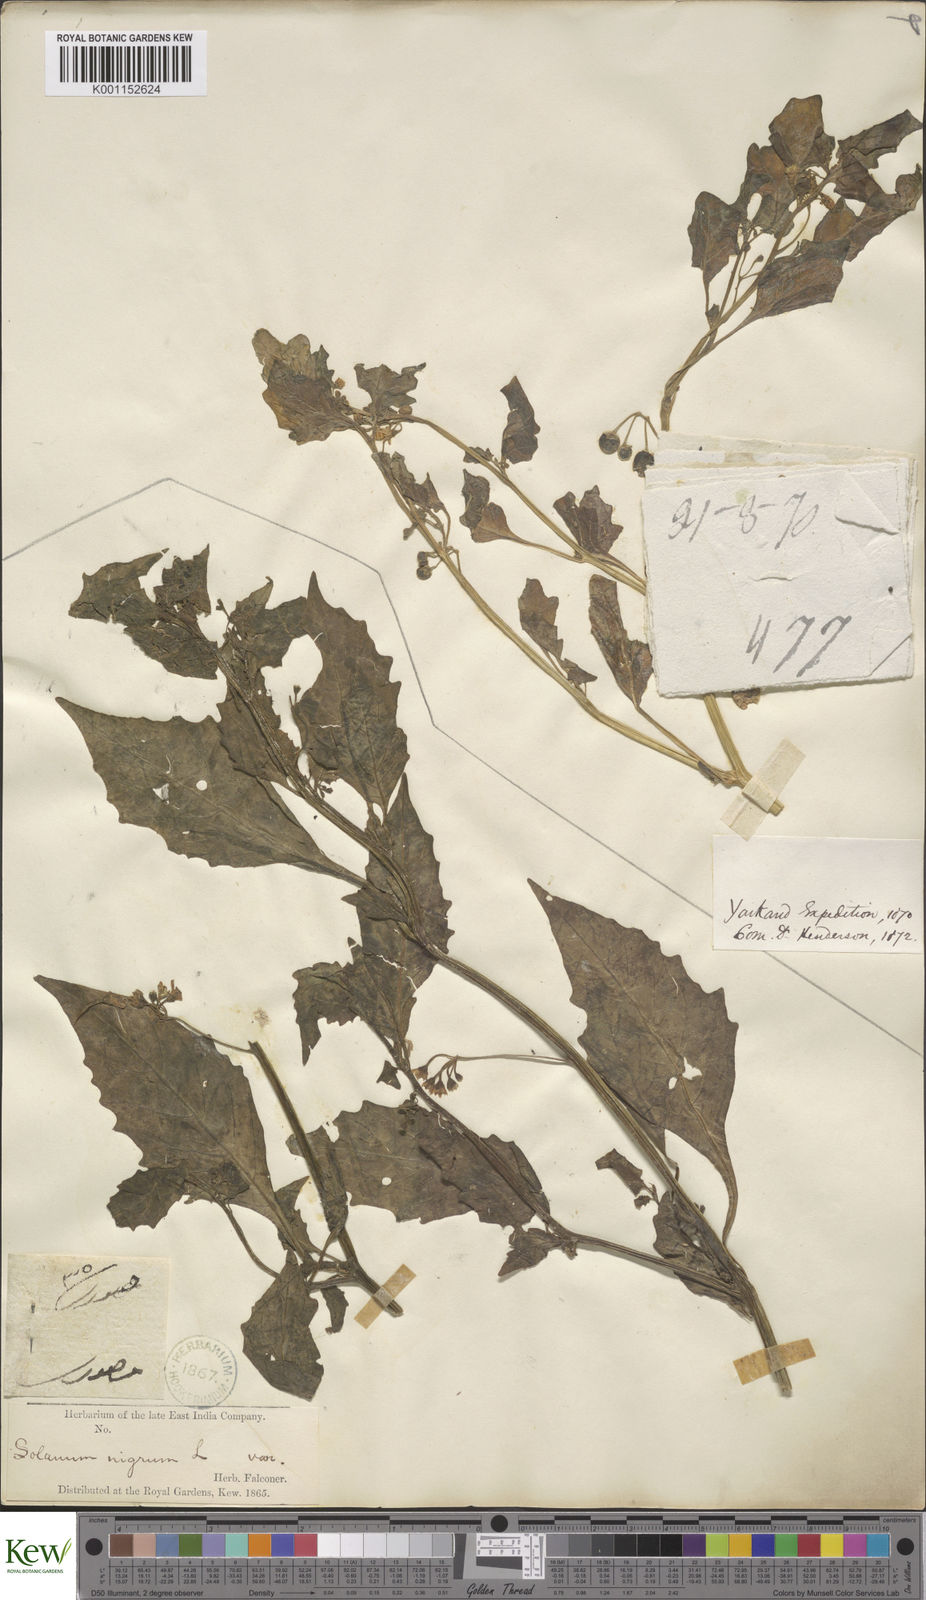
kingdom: Plantae
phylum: Tracheophyta
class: Magnoliopsida
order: Solanales
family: Solanaceae
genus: Solanum
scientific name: Solanum nigrum
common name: Black nightshade
